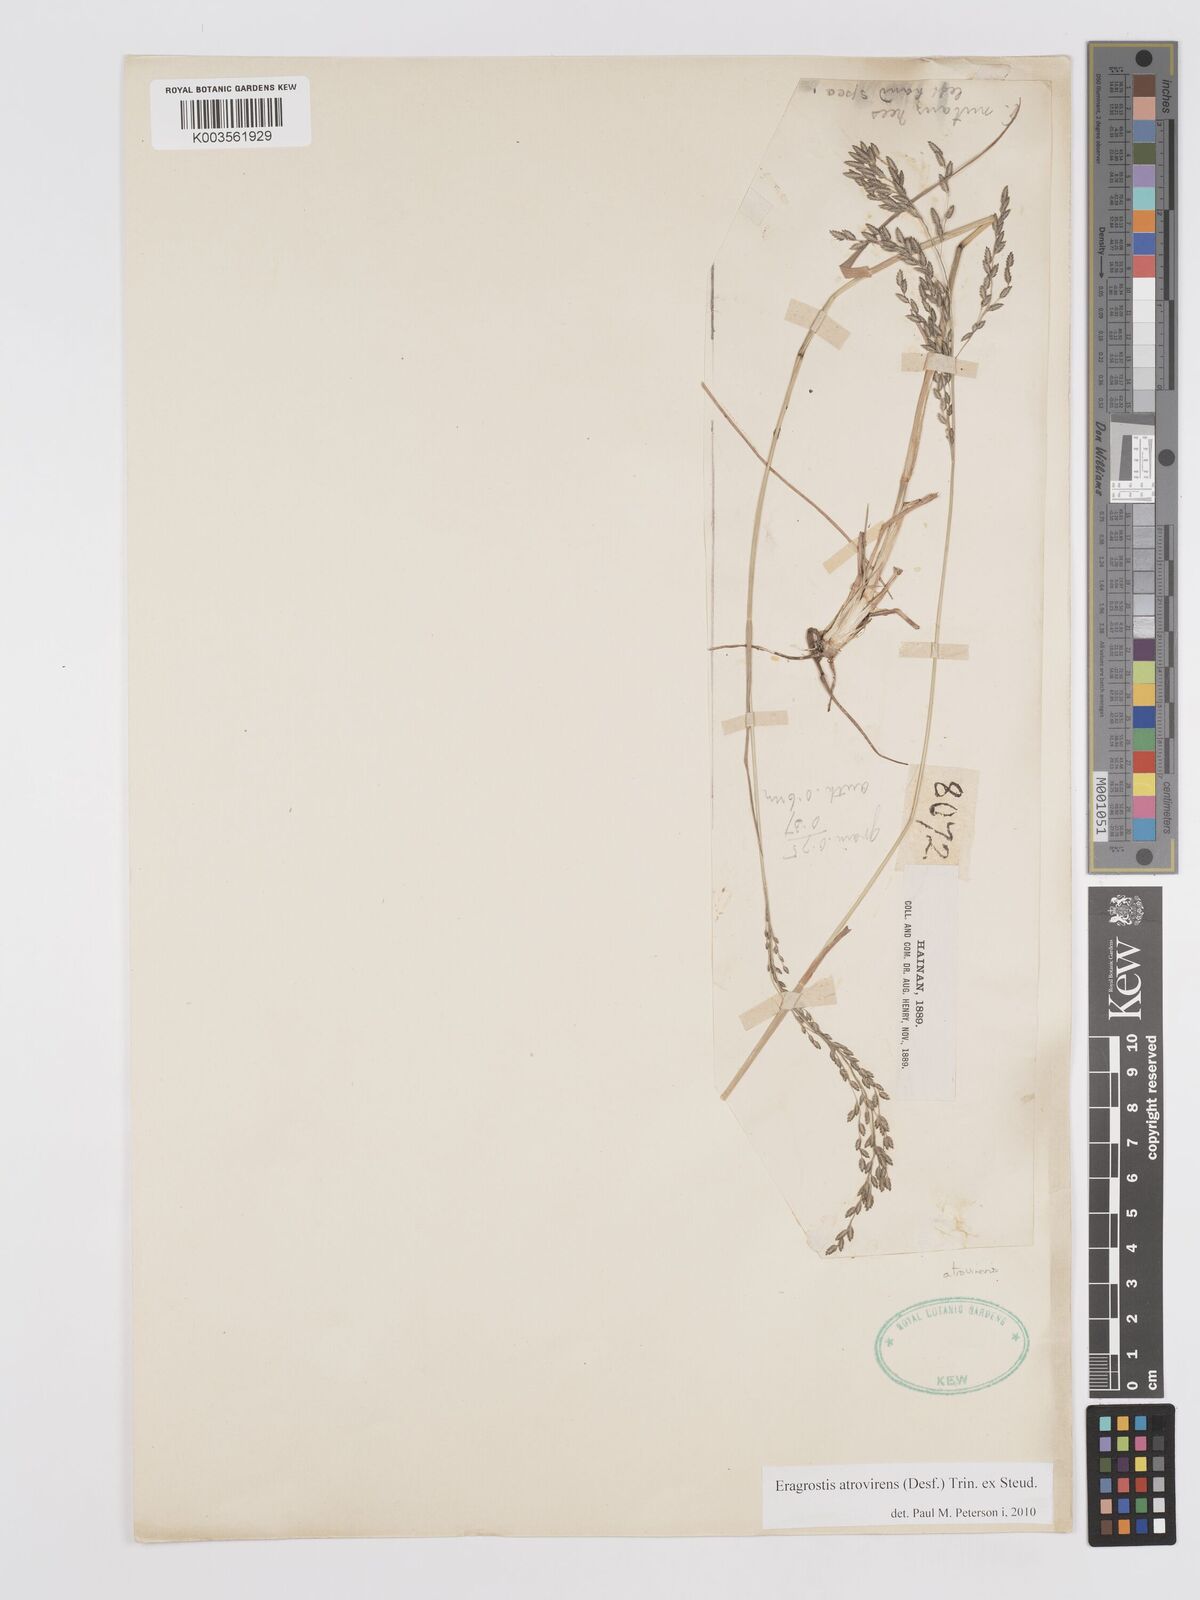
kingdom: Plantae
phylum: Tracheophyta
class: Liliopsida
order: Poales
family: Poaceae
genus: Eragrostis
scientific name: Eragrostis atrovirens
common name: Thalia lovegrass
